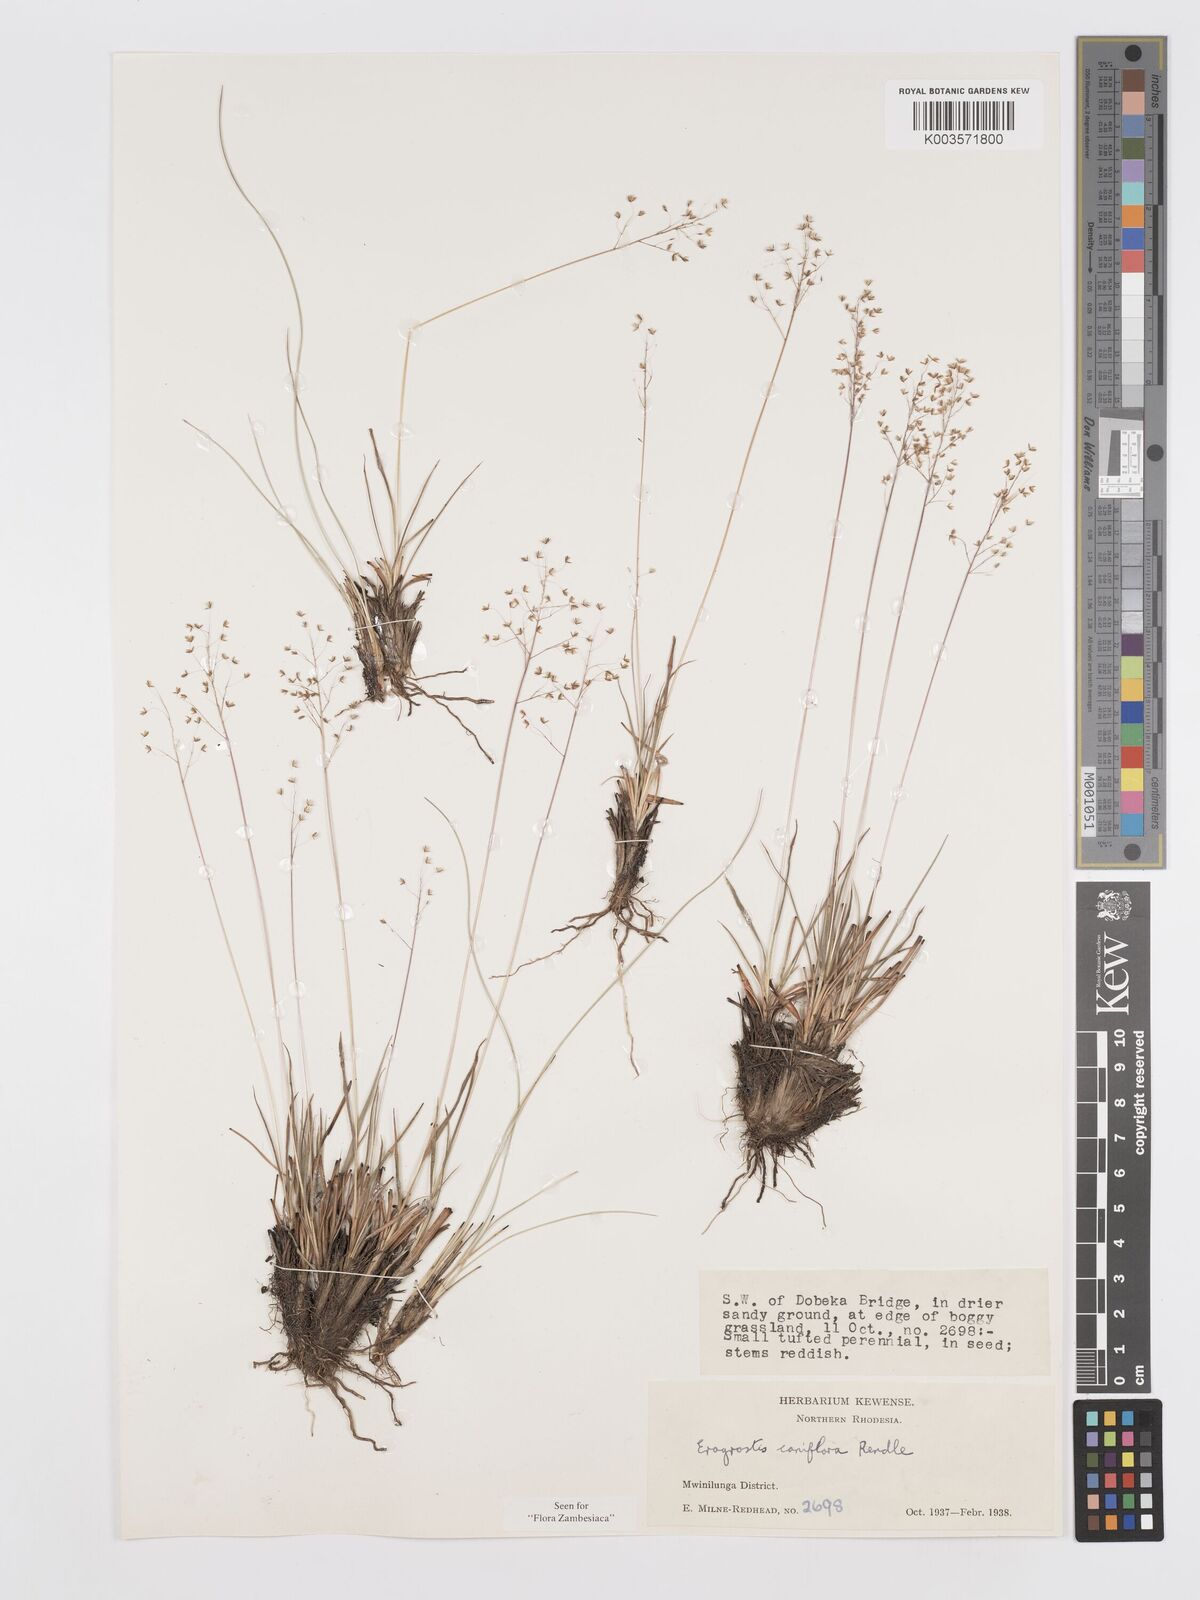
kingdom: Plantae
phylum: Tracheophyta
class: Liliopsida
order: Poales
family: Poaceae
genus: Eragrostis
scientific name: Eragrostis caniflora
